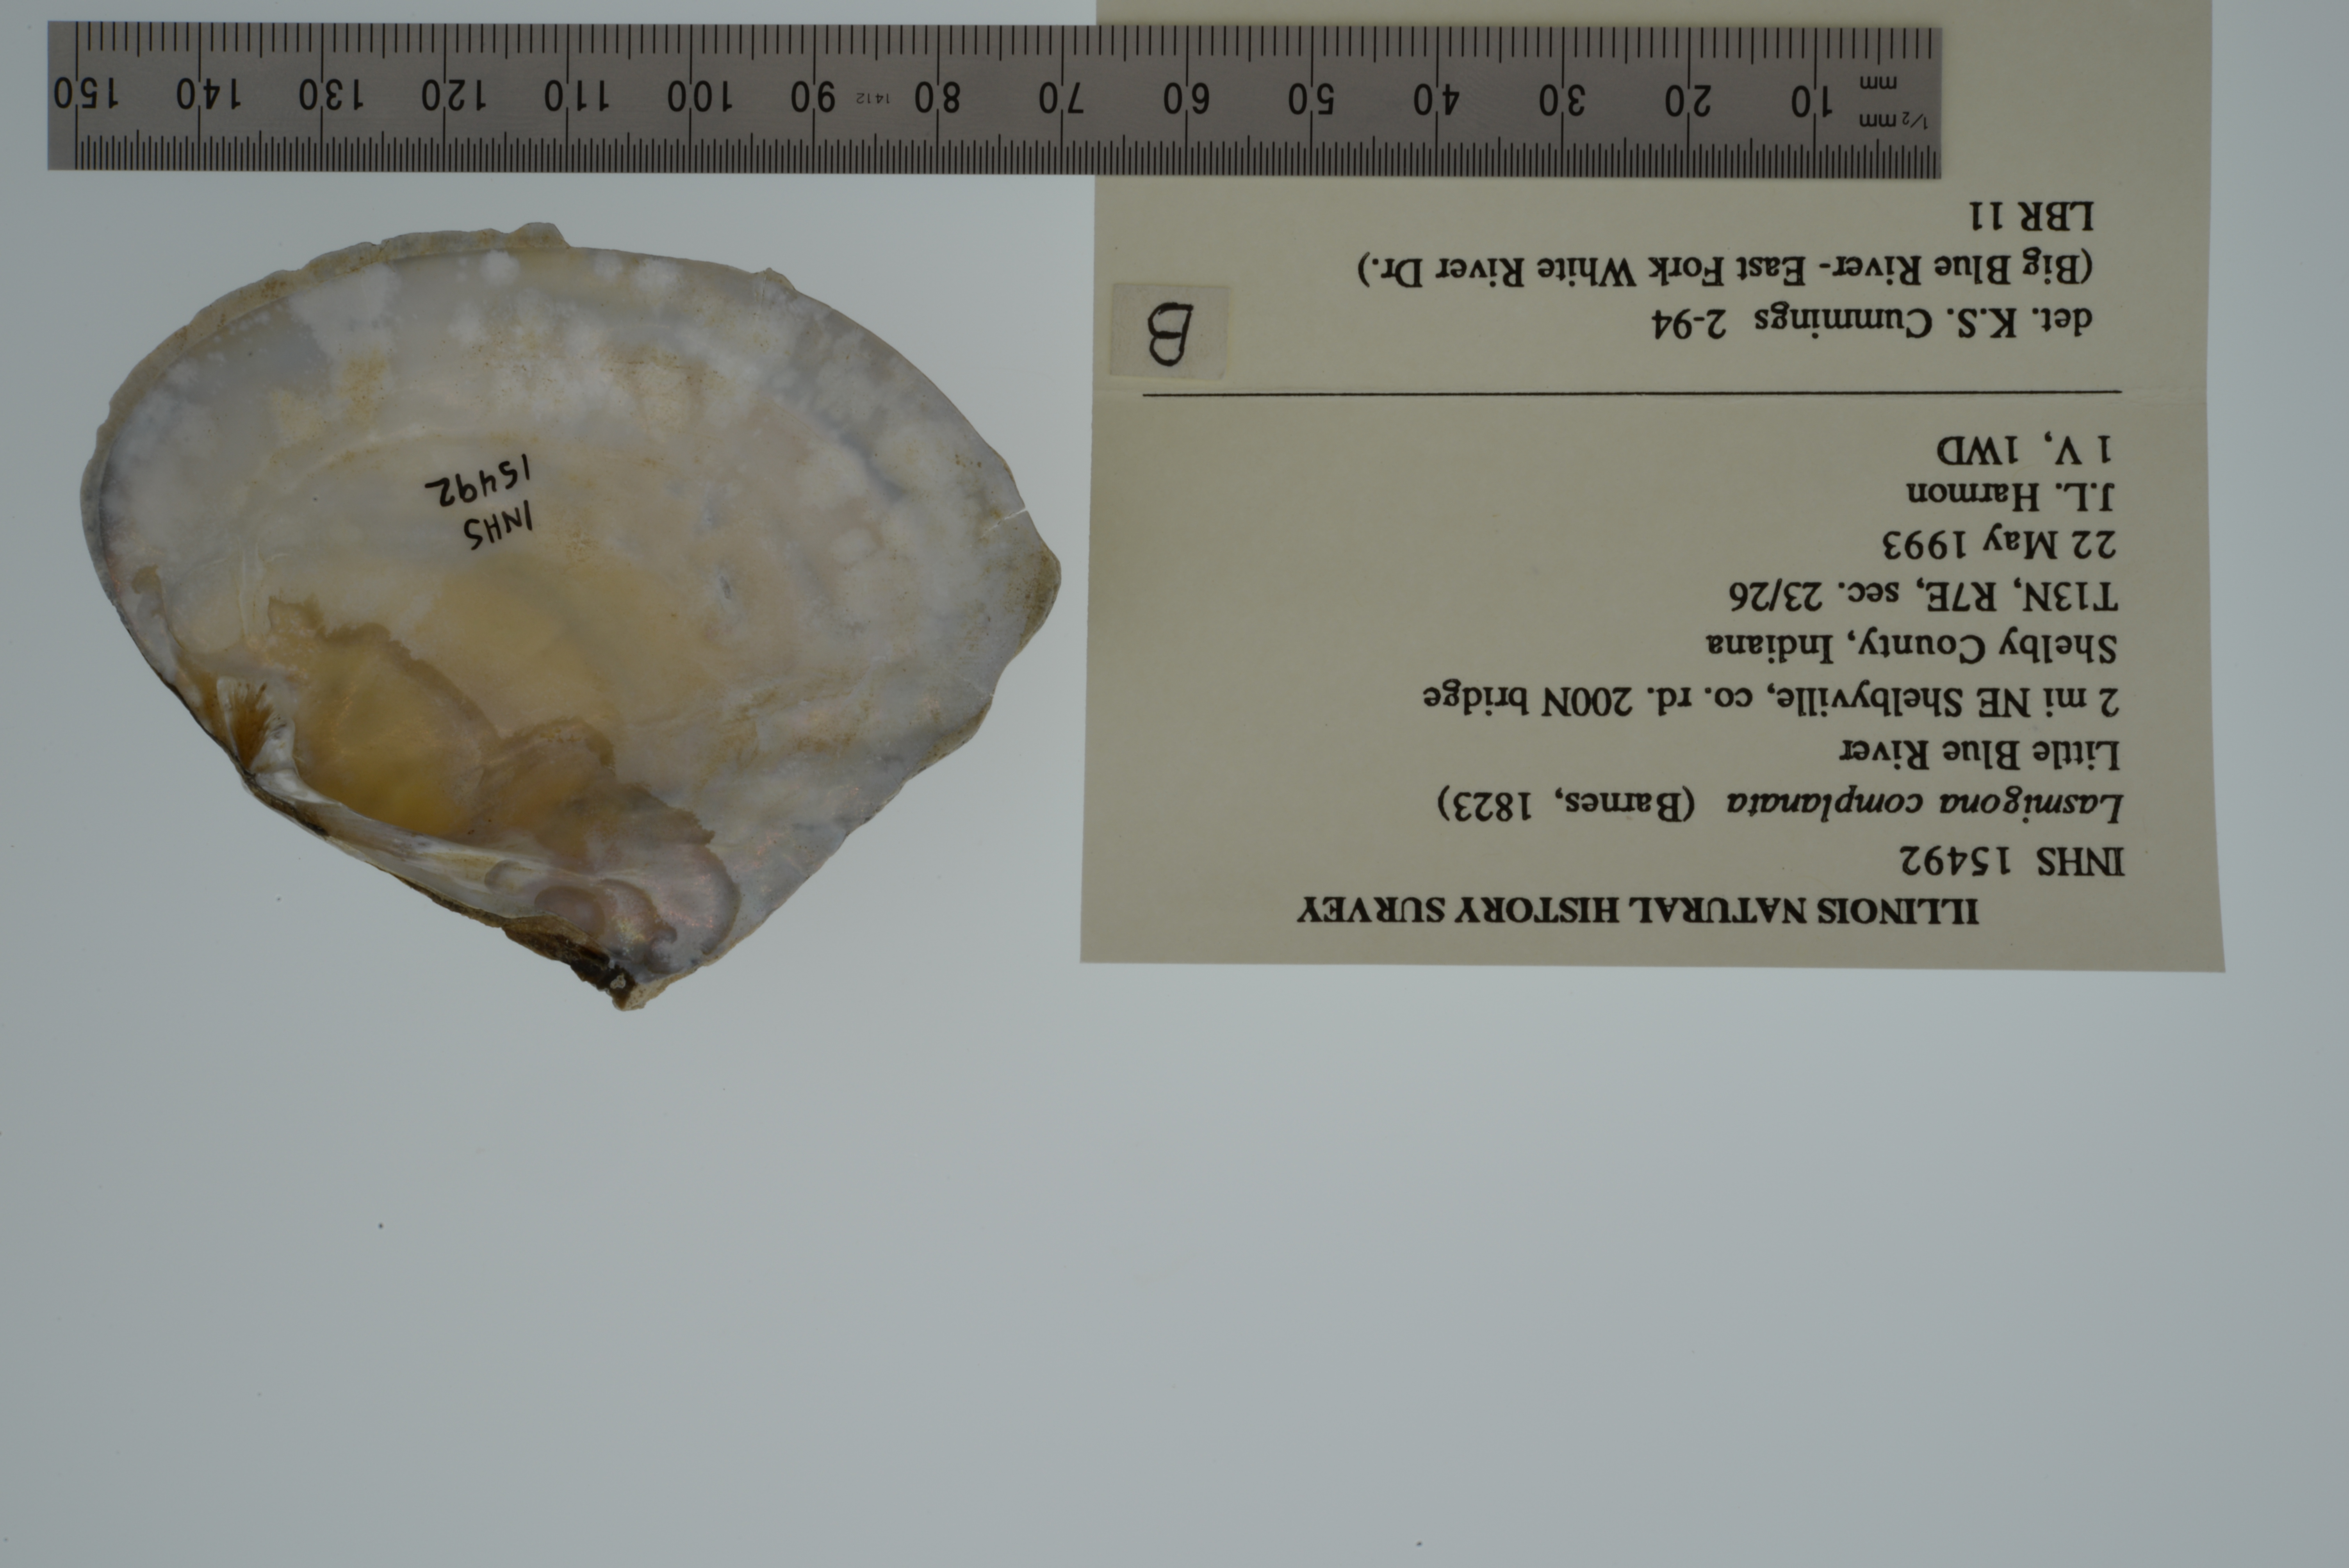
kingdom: Animalia
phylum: Mollusca
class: Bivalvia
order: Unionida
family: Unionidae
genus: Lasmigona
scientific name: Lasmigona complanata
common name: White heelsplitter
